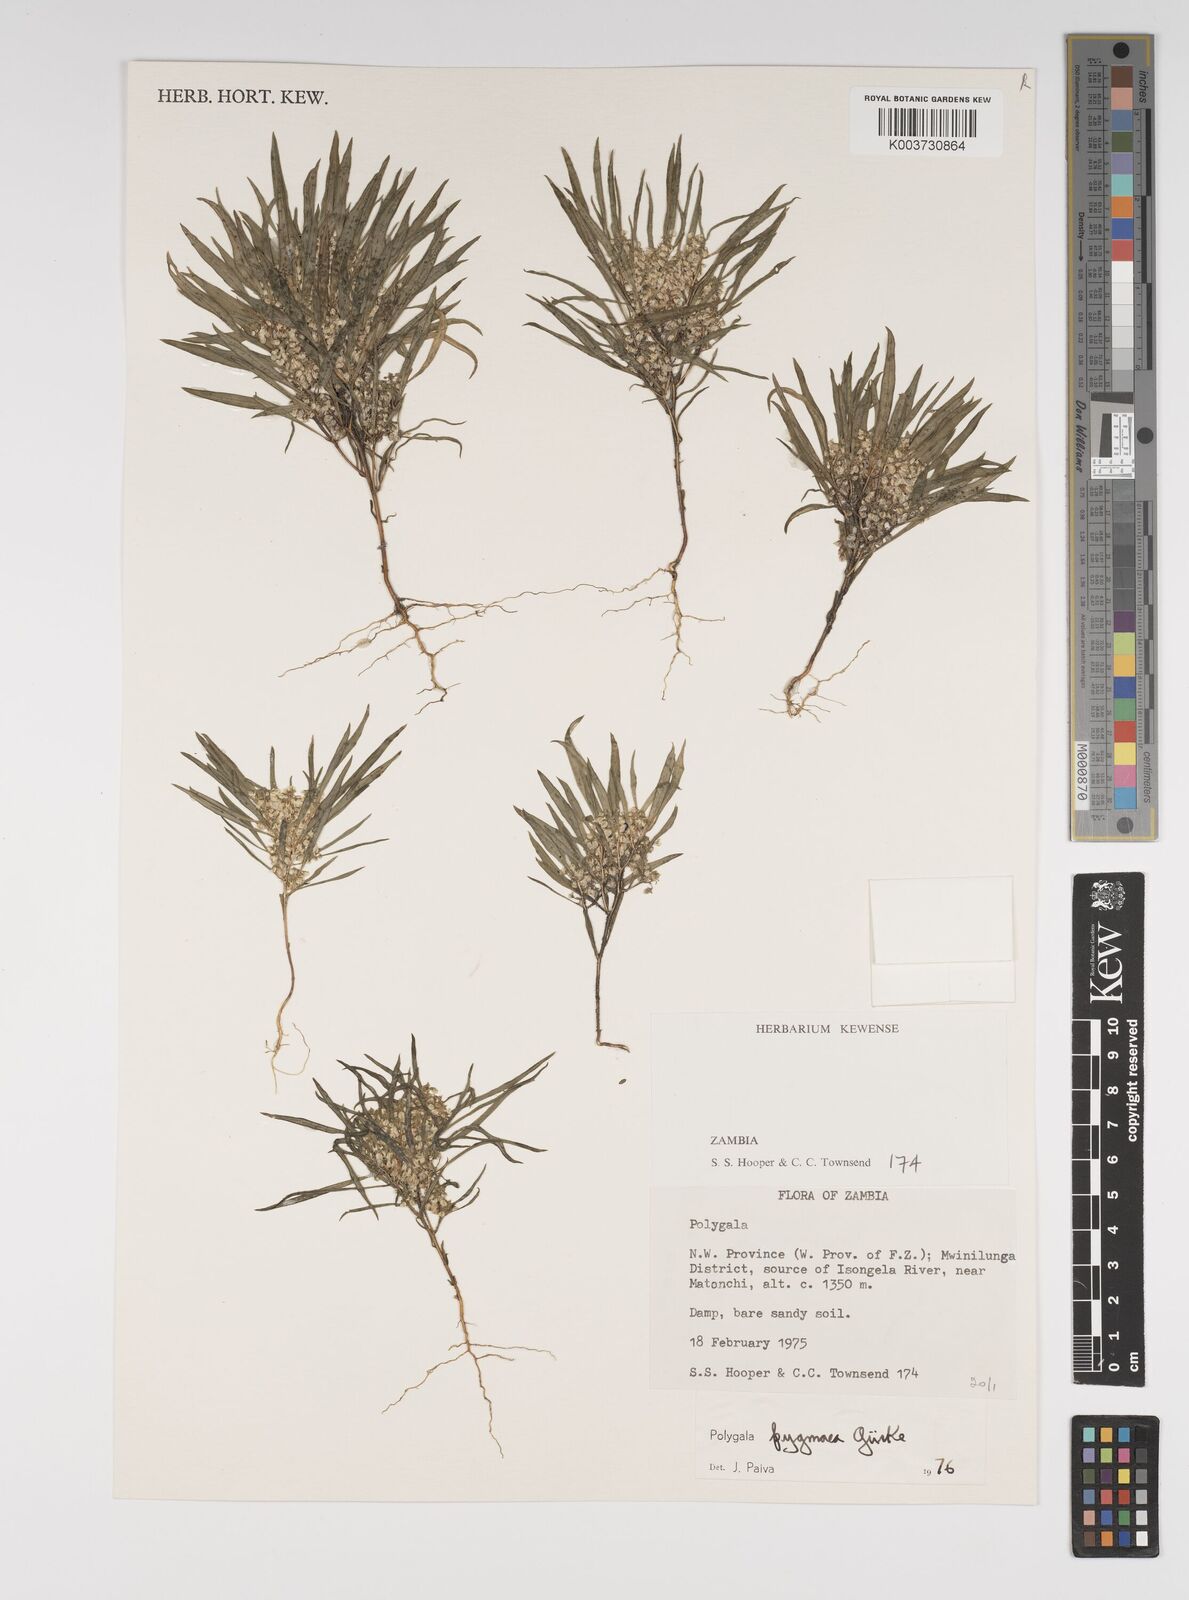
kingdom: Plantae
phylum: Tracheophyta
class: Magnoliopsida
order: Fabales
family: Polygalaceae
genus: Polygala
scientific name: Polygala welwitschii
